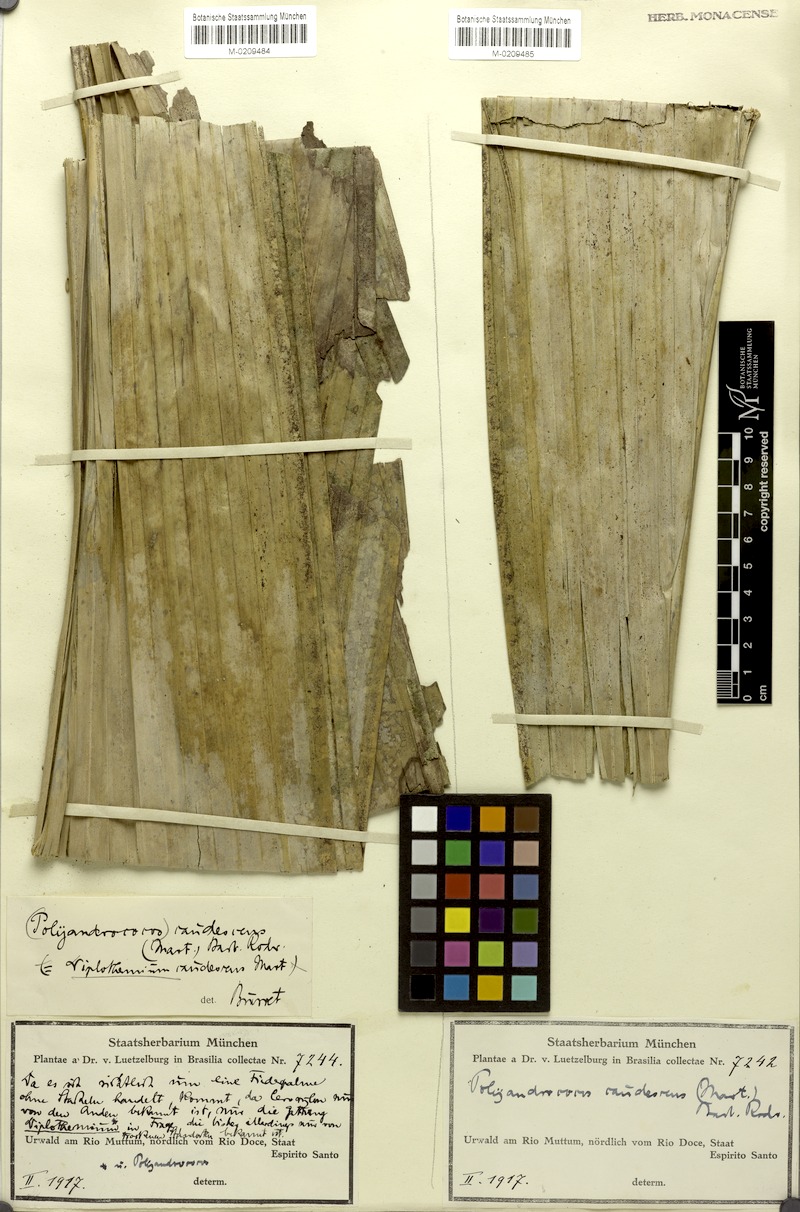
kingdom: Plantae
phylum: Tracheophyta
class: Liliopsida
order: Arecales
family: Arecaceae
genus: Allagoptera
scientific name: Allagoptera caudescens
